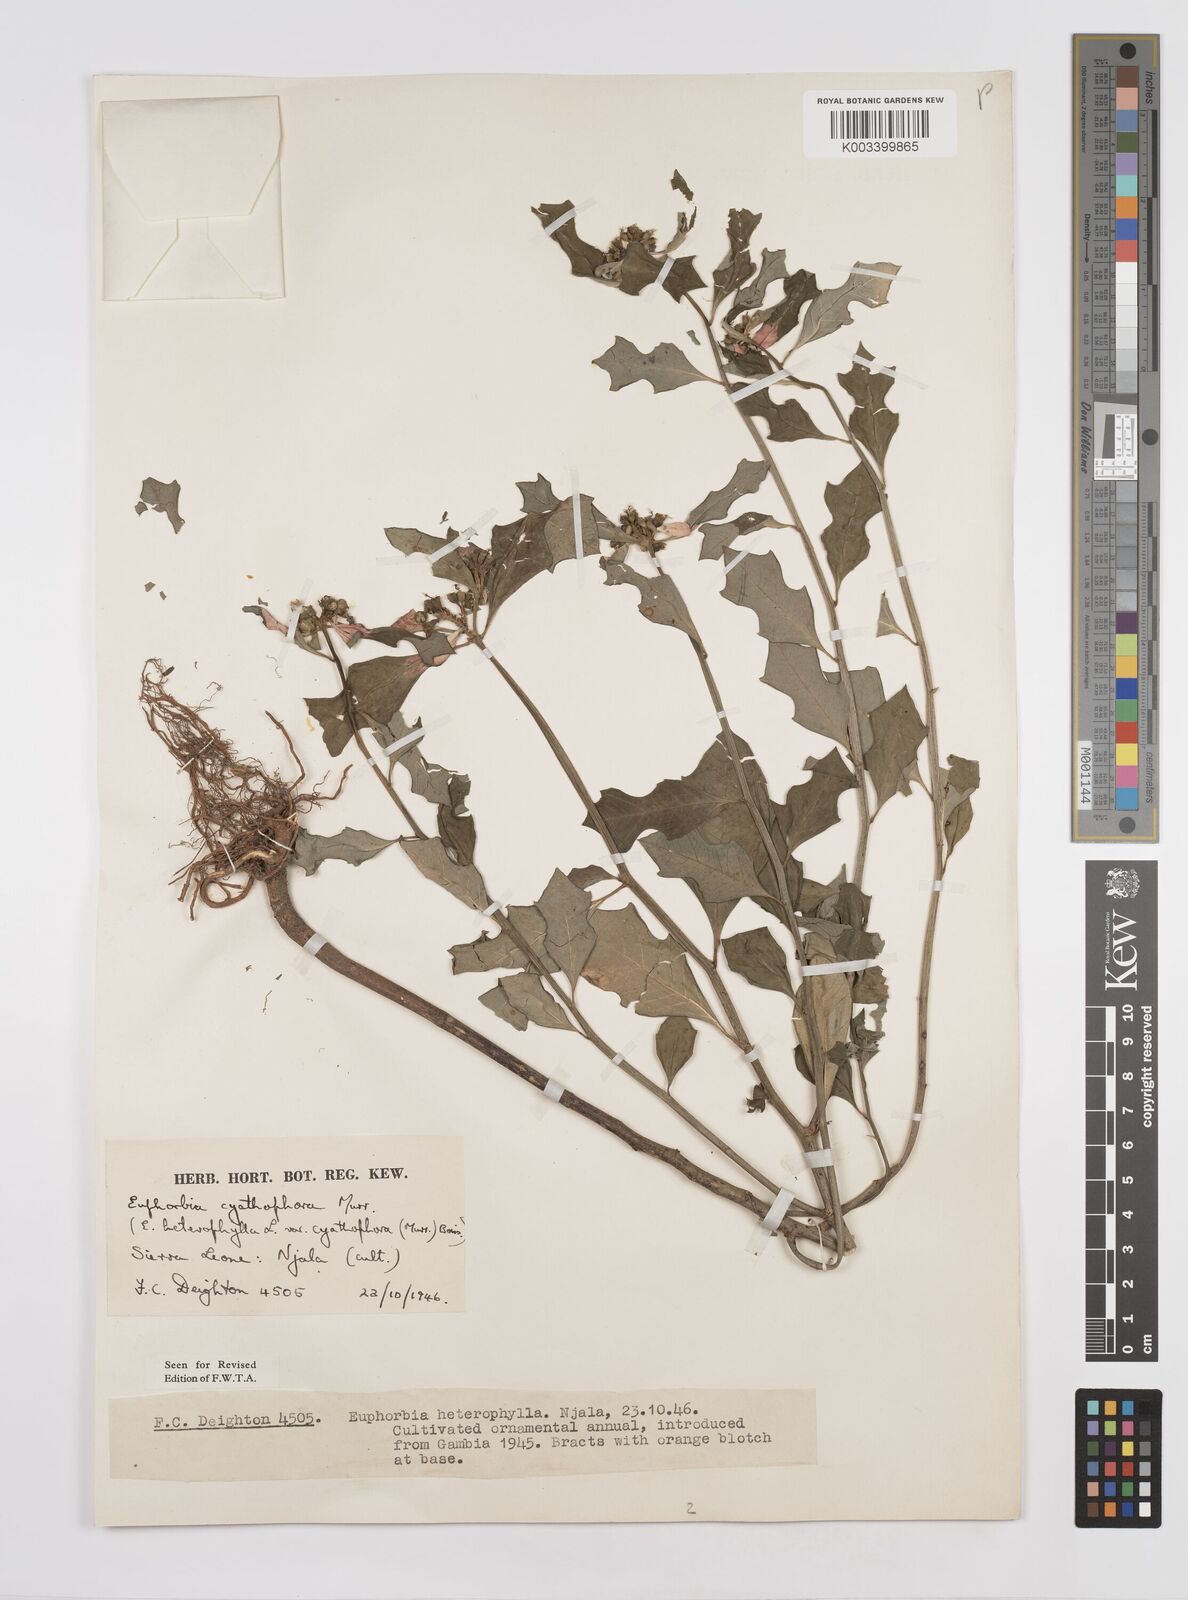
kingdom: Plantae
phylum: Tracheophyta
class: Magnoliopsida
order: Malpighiales
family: Euphorbiaceae
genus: Euphorbia
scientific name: Euphorbia heterophylla
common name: Mexican fireplant
